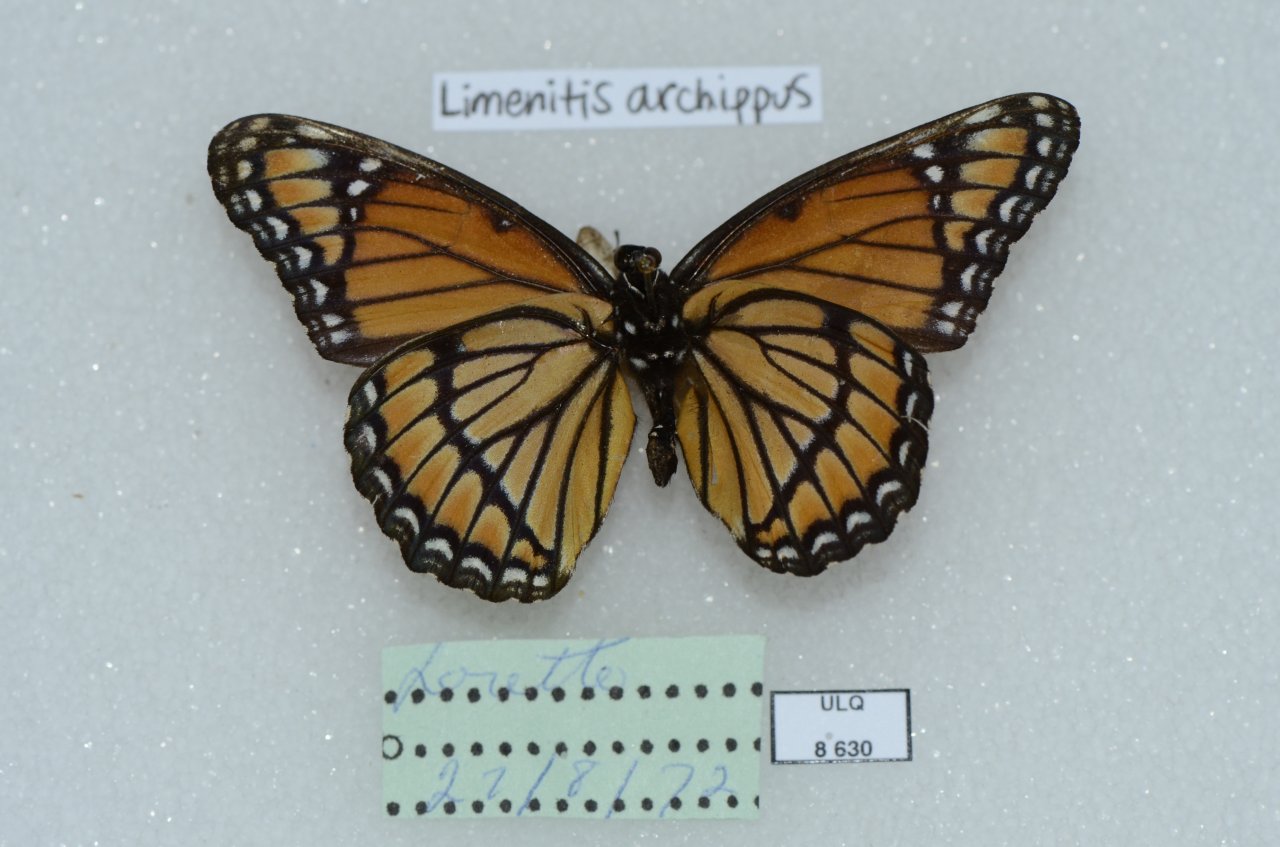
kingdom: Animalia
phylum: Arthropoda
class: Insecta
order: Lepidoptera
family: Nymphalidae
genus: Limenitis
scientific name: Limenitis archippus
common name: Viceroy
